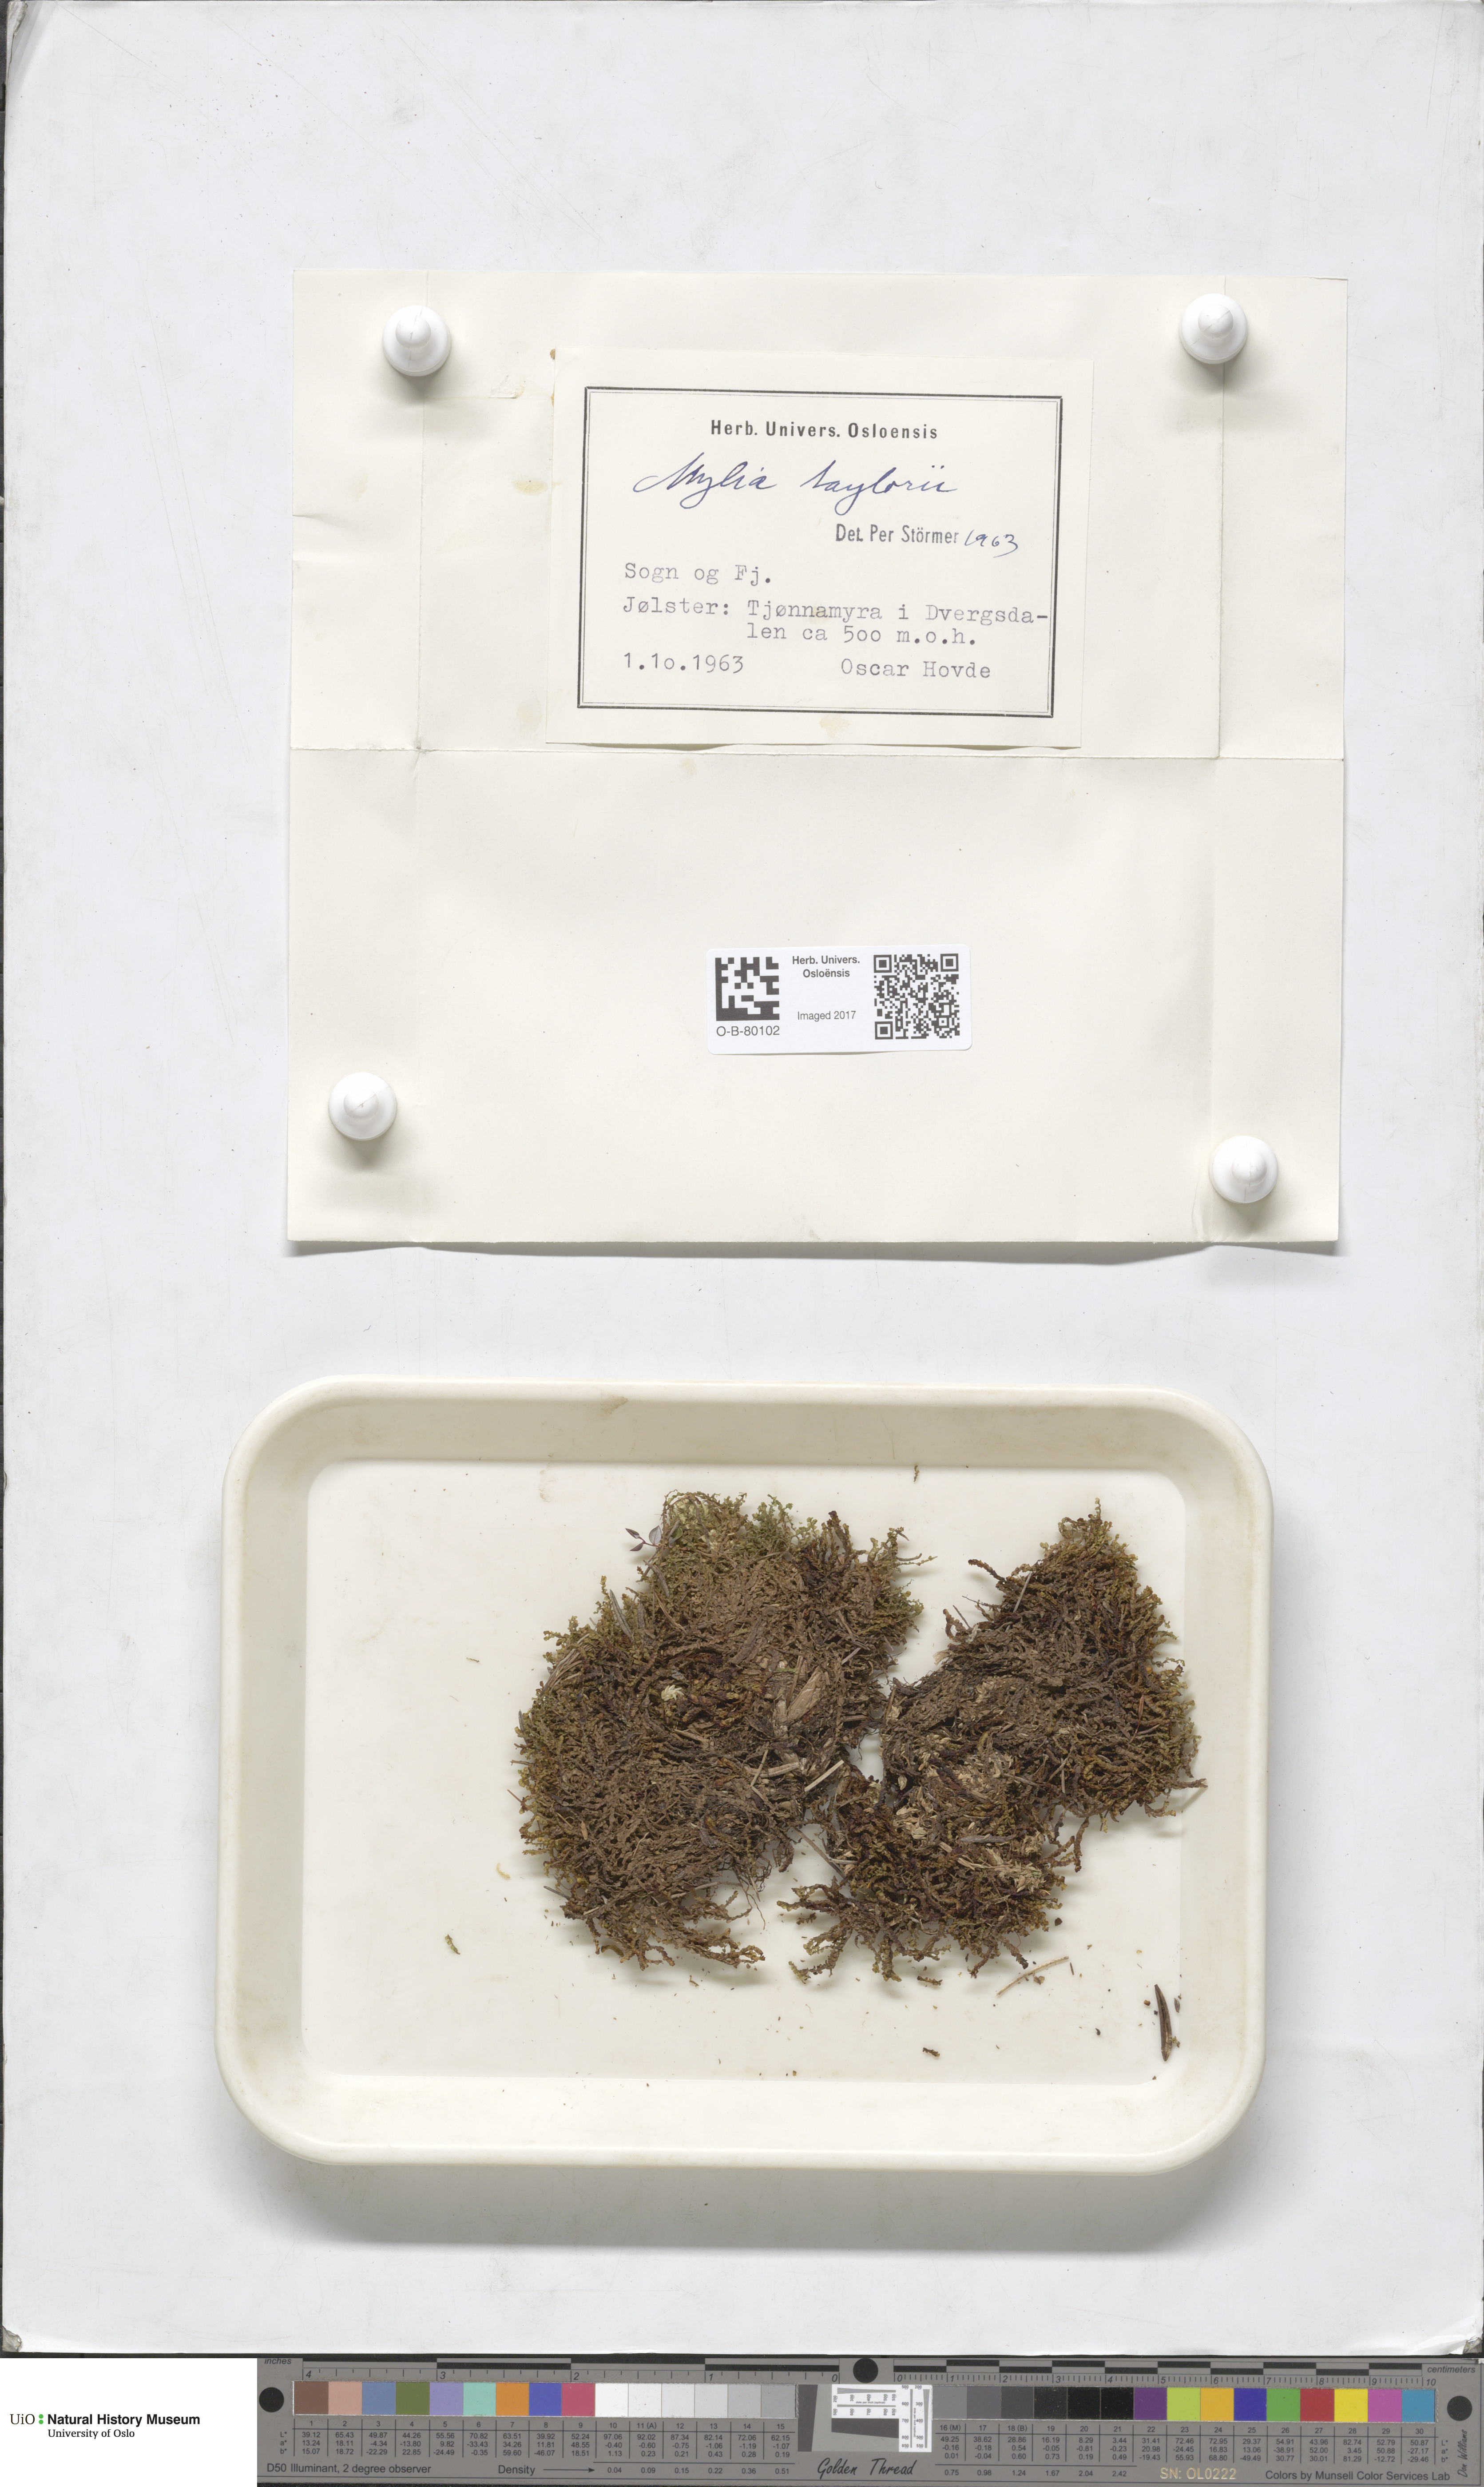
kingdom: Plantae
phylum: Marchantiophyta
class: Jungermanniopsida
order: Jungermanniales
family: Myliaceae
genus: Mylia
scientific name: Mylia taylorii
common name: Taylor s flapwort
